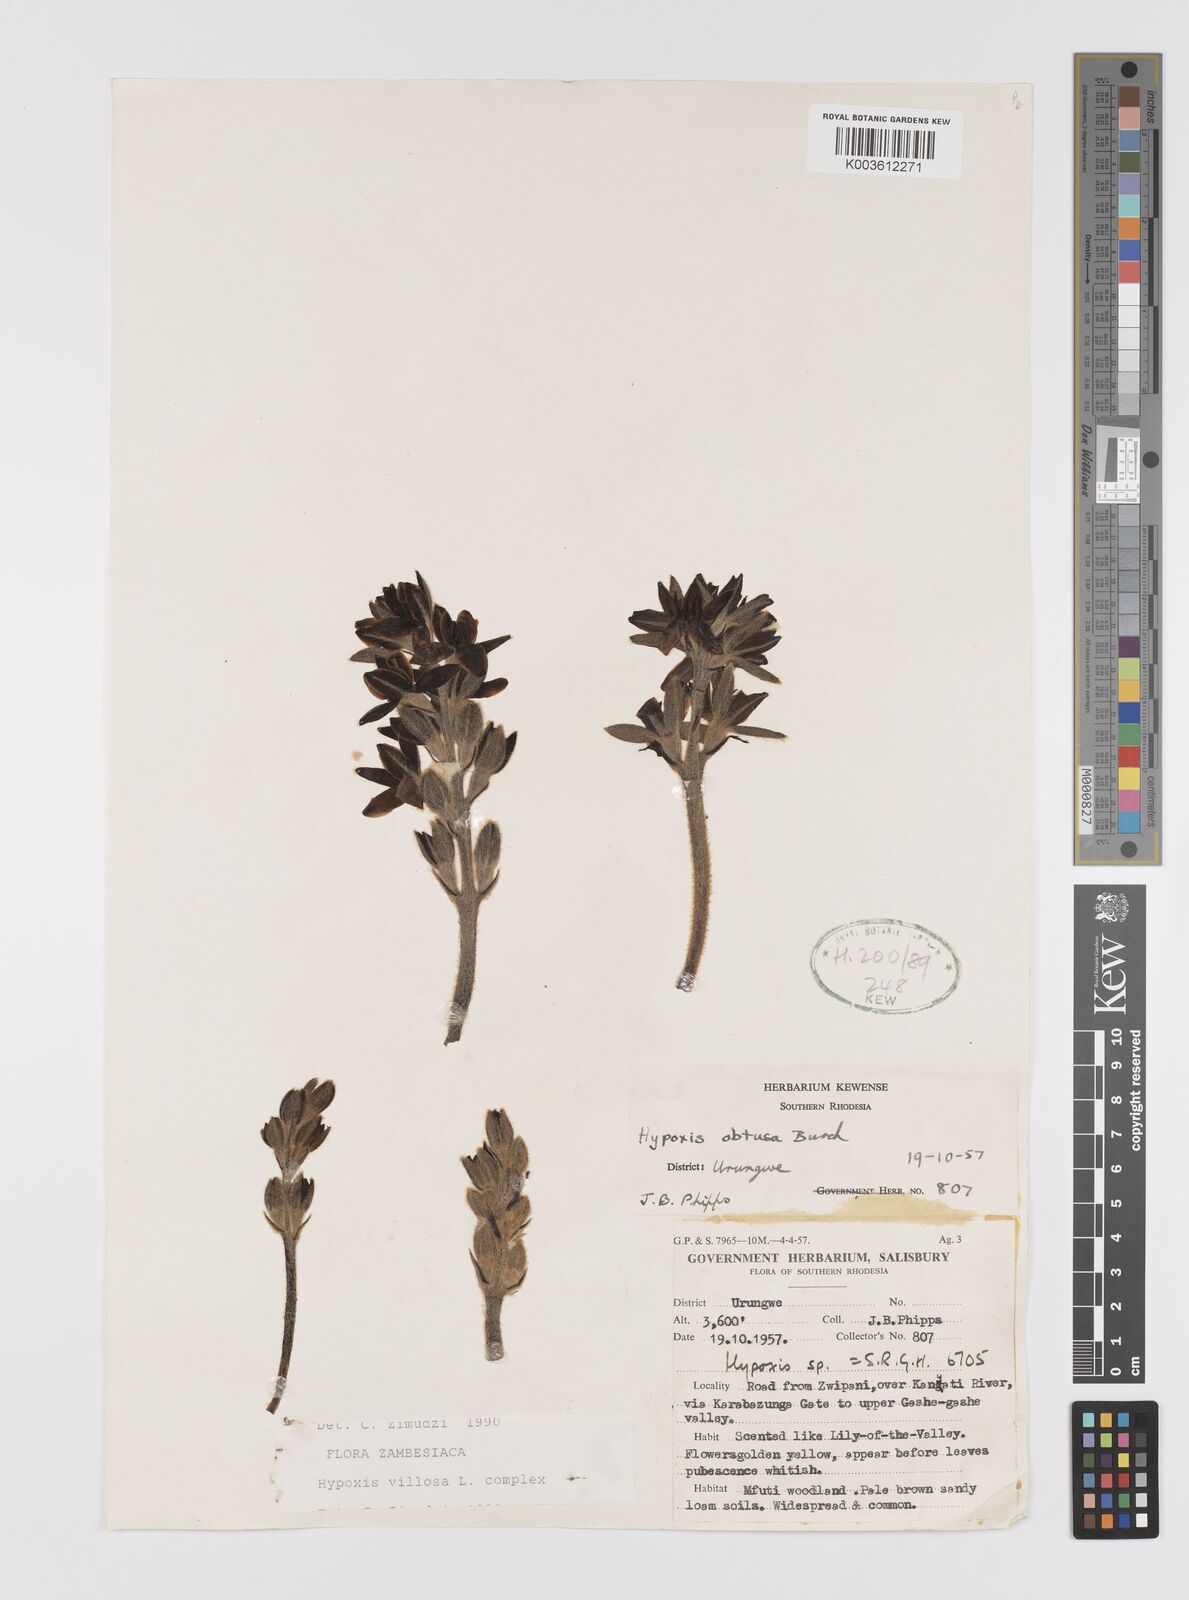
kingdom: Plantae
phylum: Tracheophyta
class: Liliopsida
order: Asparagales
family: Hypoxidaceae
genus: Hypoxis
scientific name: Hypoxis goetzei
